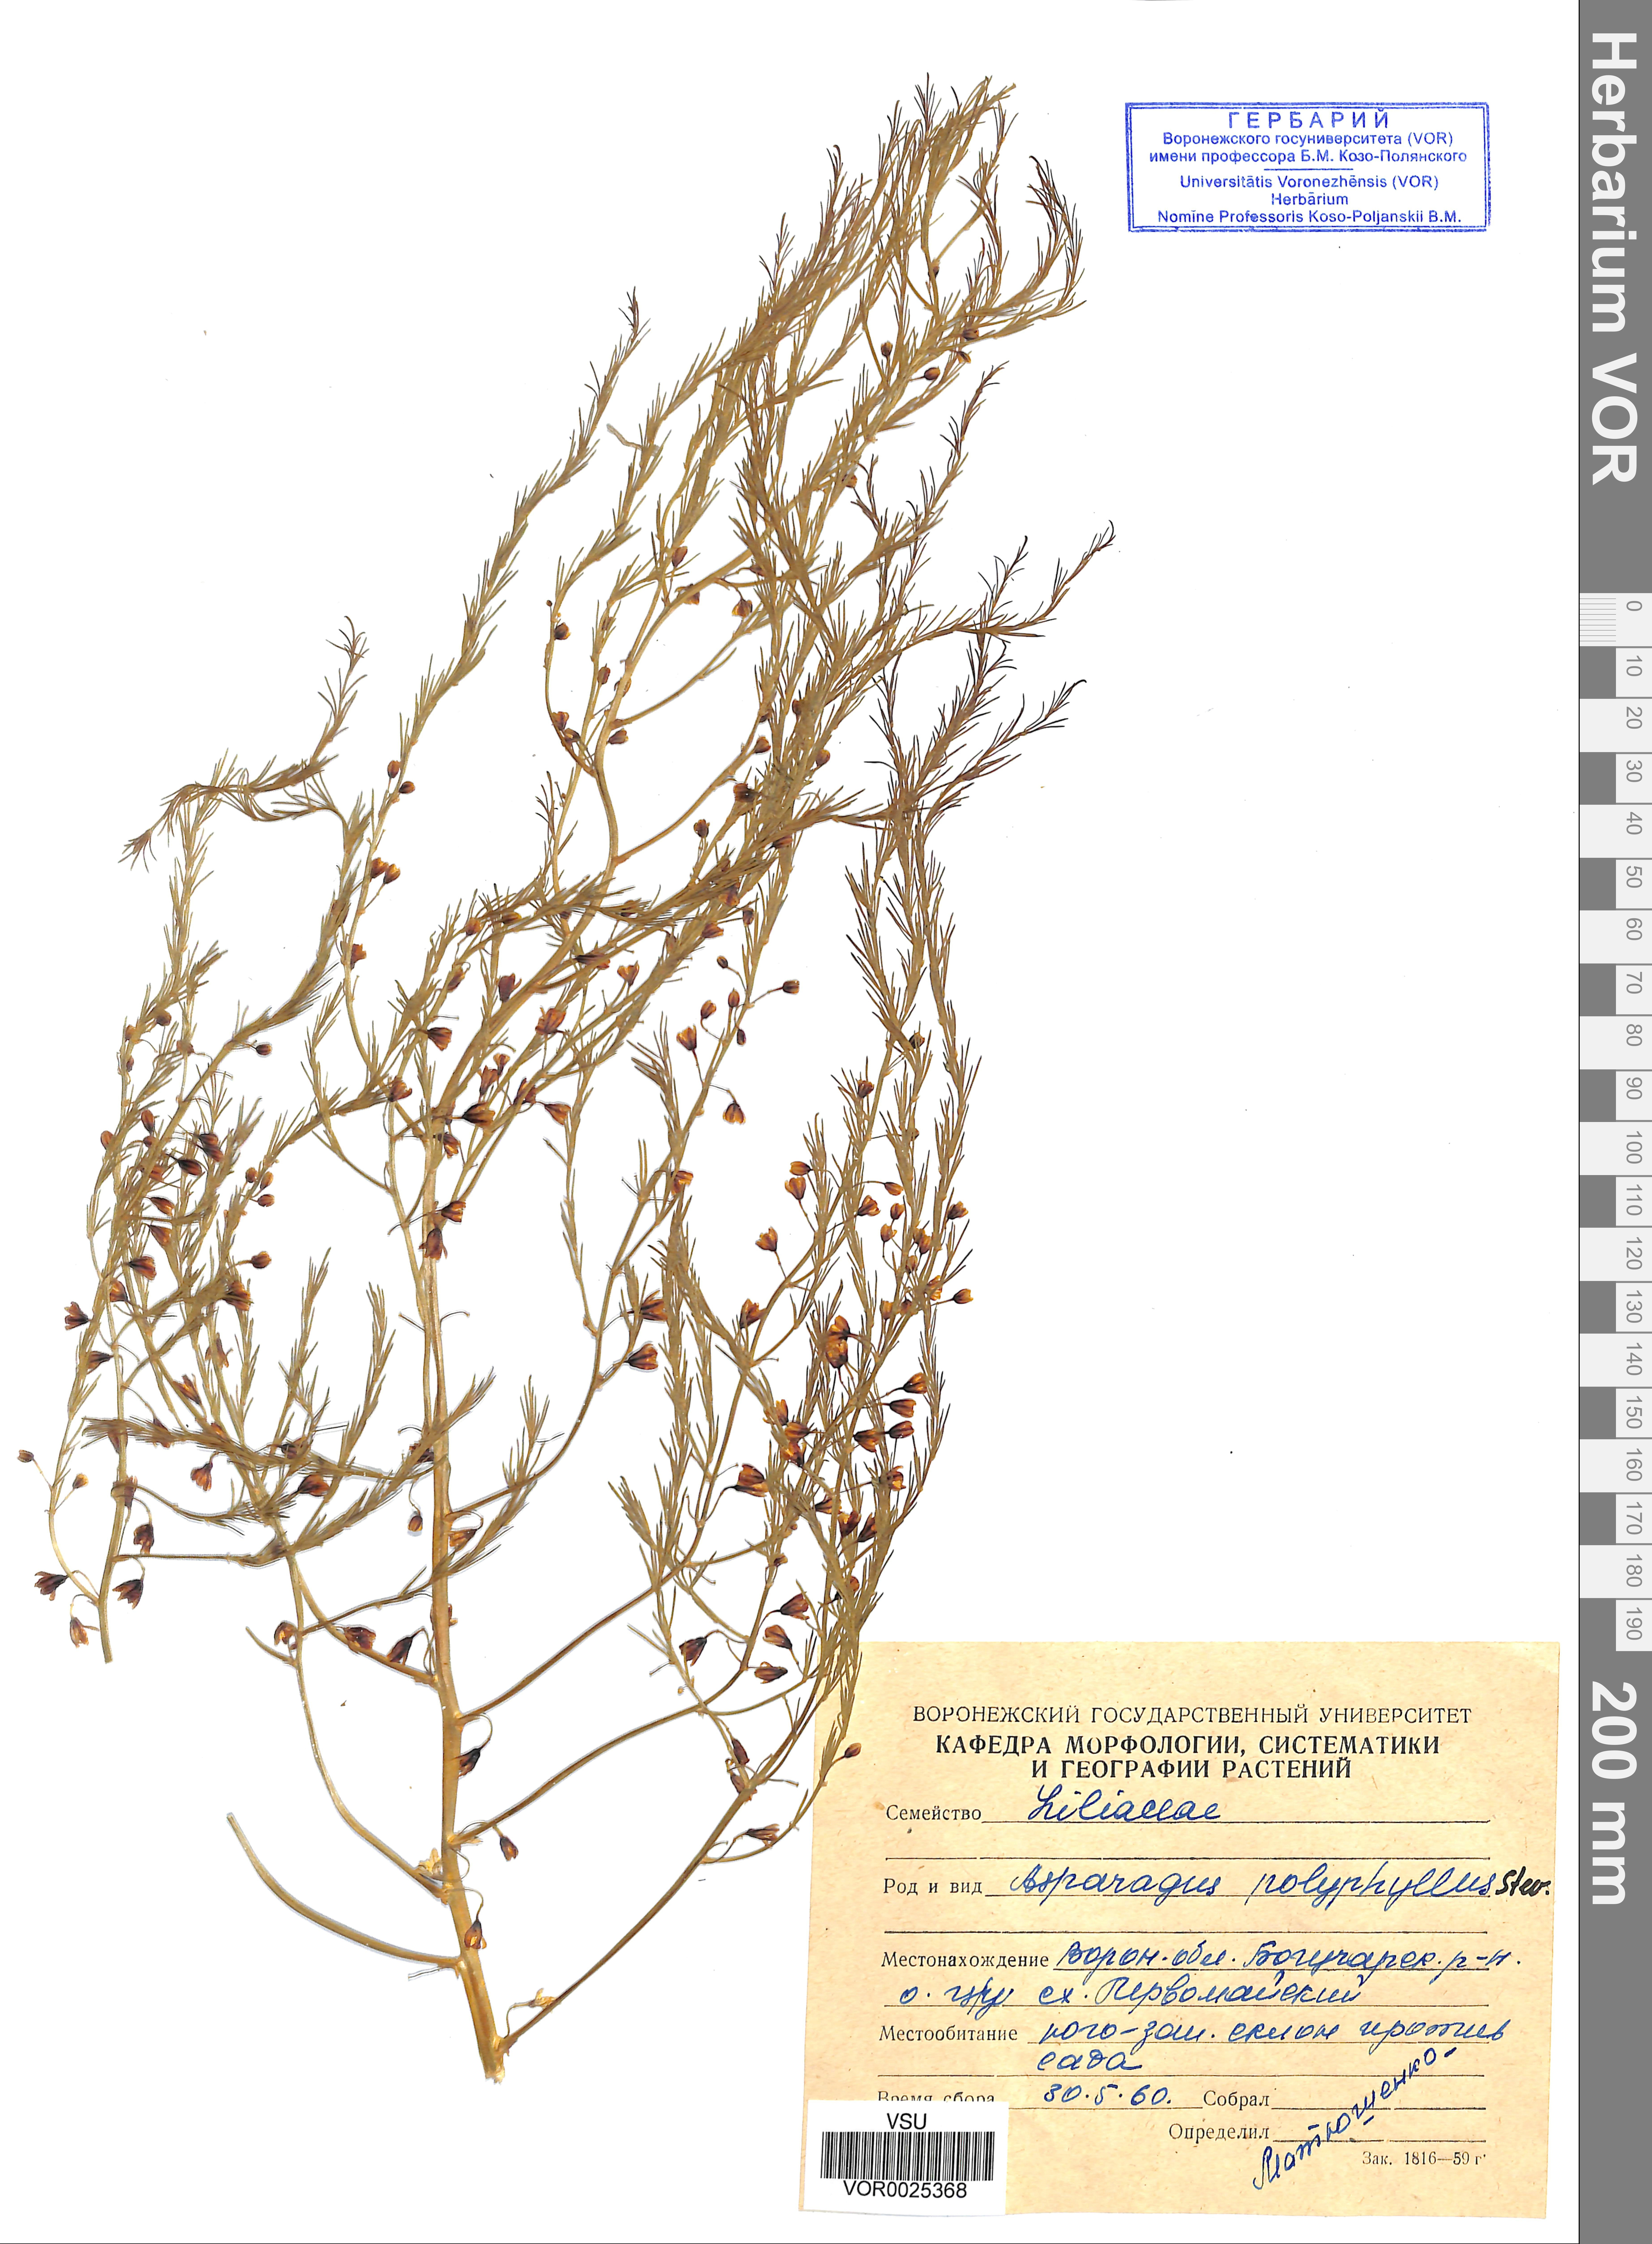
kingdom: Plantae
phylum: Tracheophyta
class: Liliopsida
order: Asparagales
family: Asparagaceae
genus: Asparagus
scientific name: Asparagus officinalis
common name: Garden asparagus
